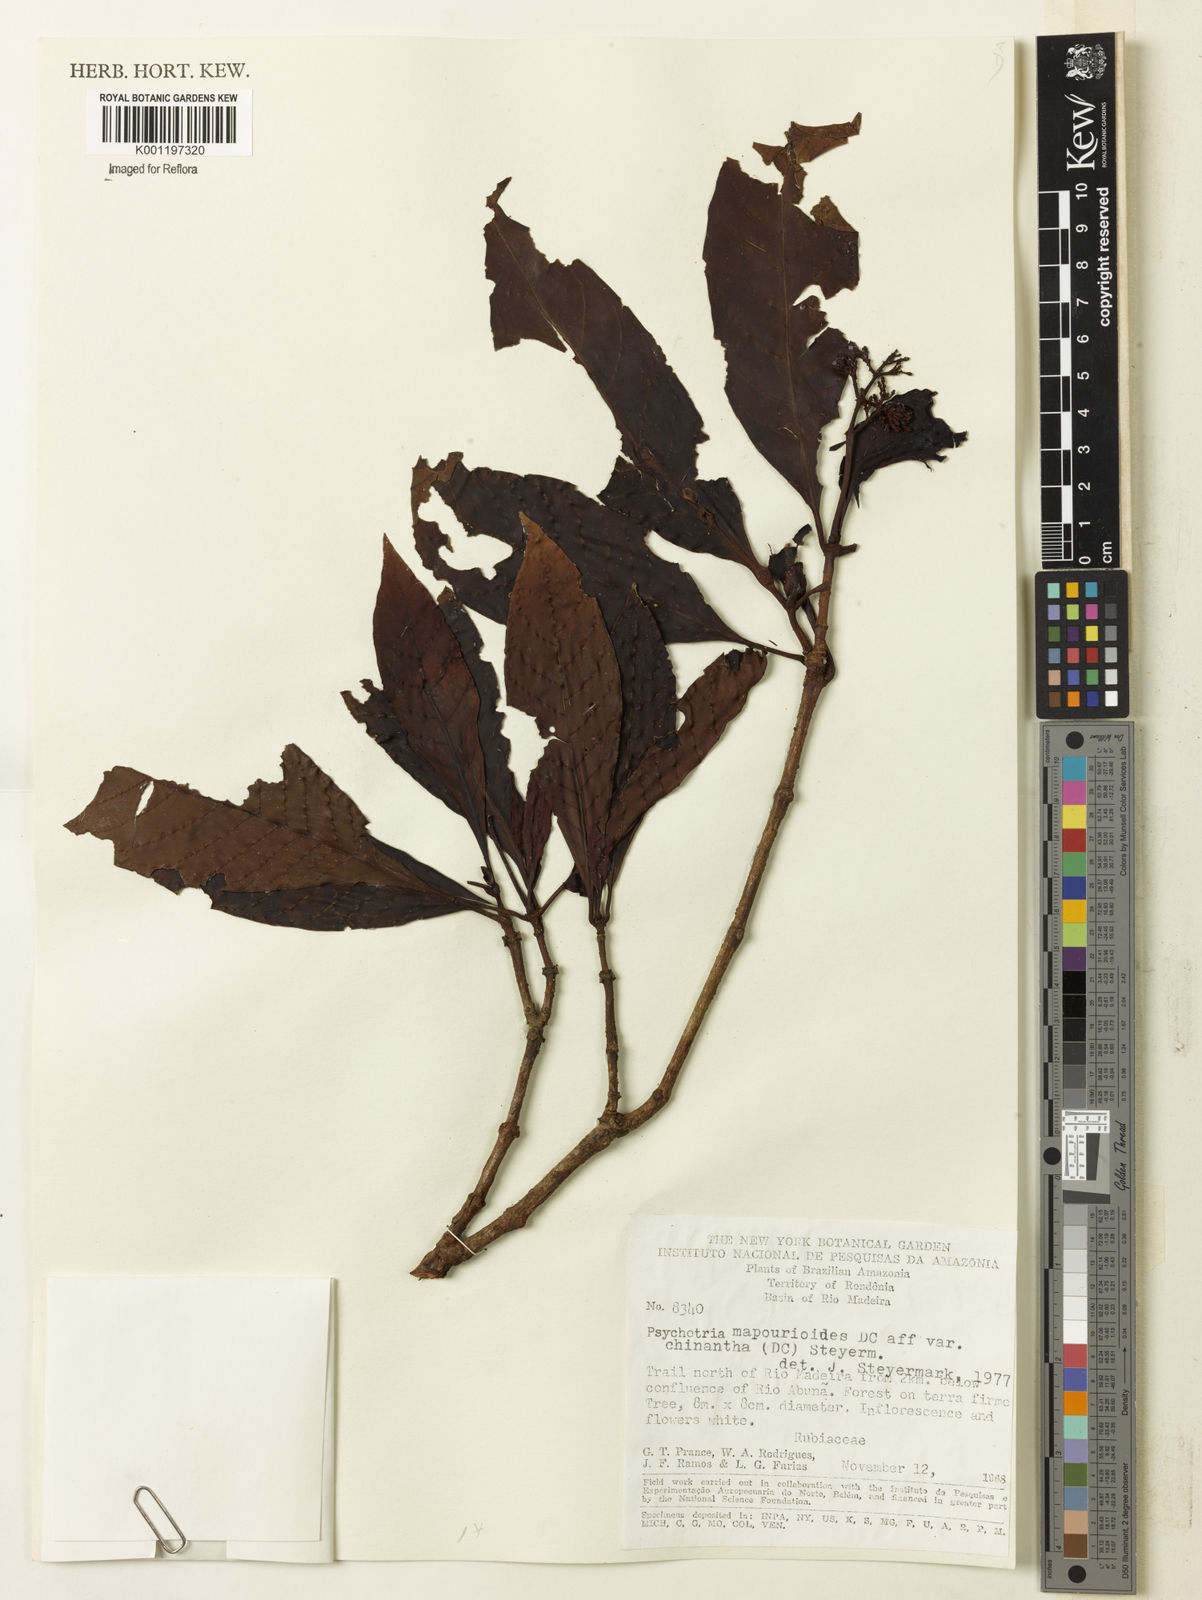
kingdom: Plantae
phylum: Tracheophyta
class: Magnoliopsida
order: Gentianales
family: Rubiaceae
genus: Psychotria
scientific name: Psychotria pedunculosa
